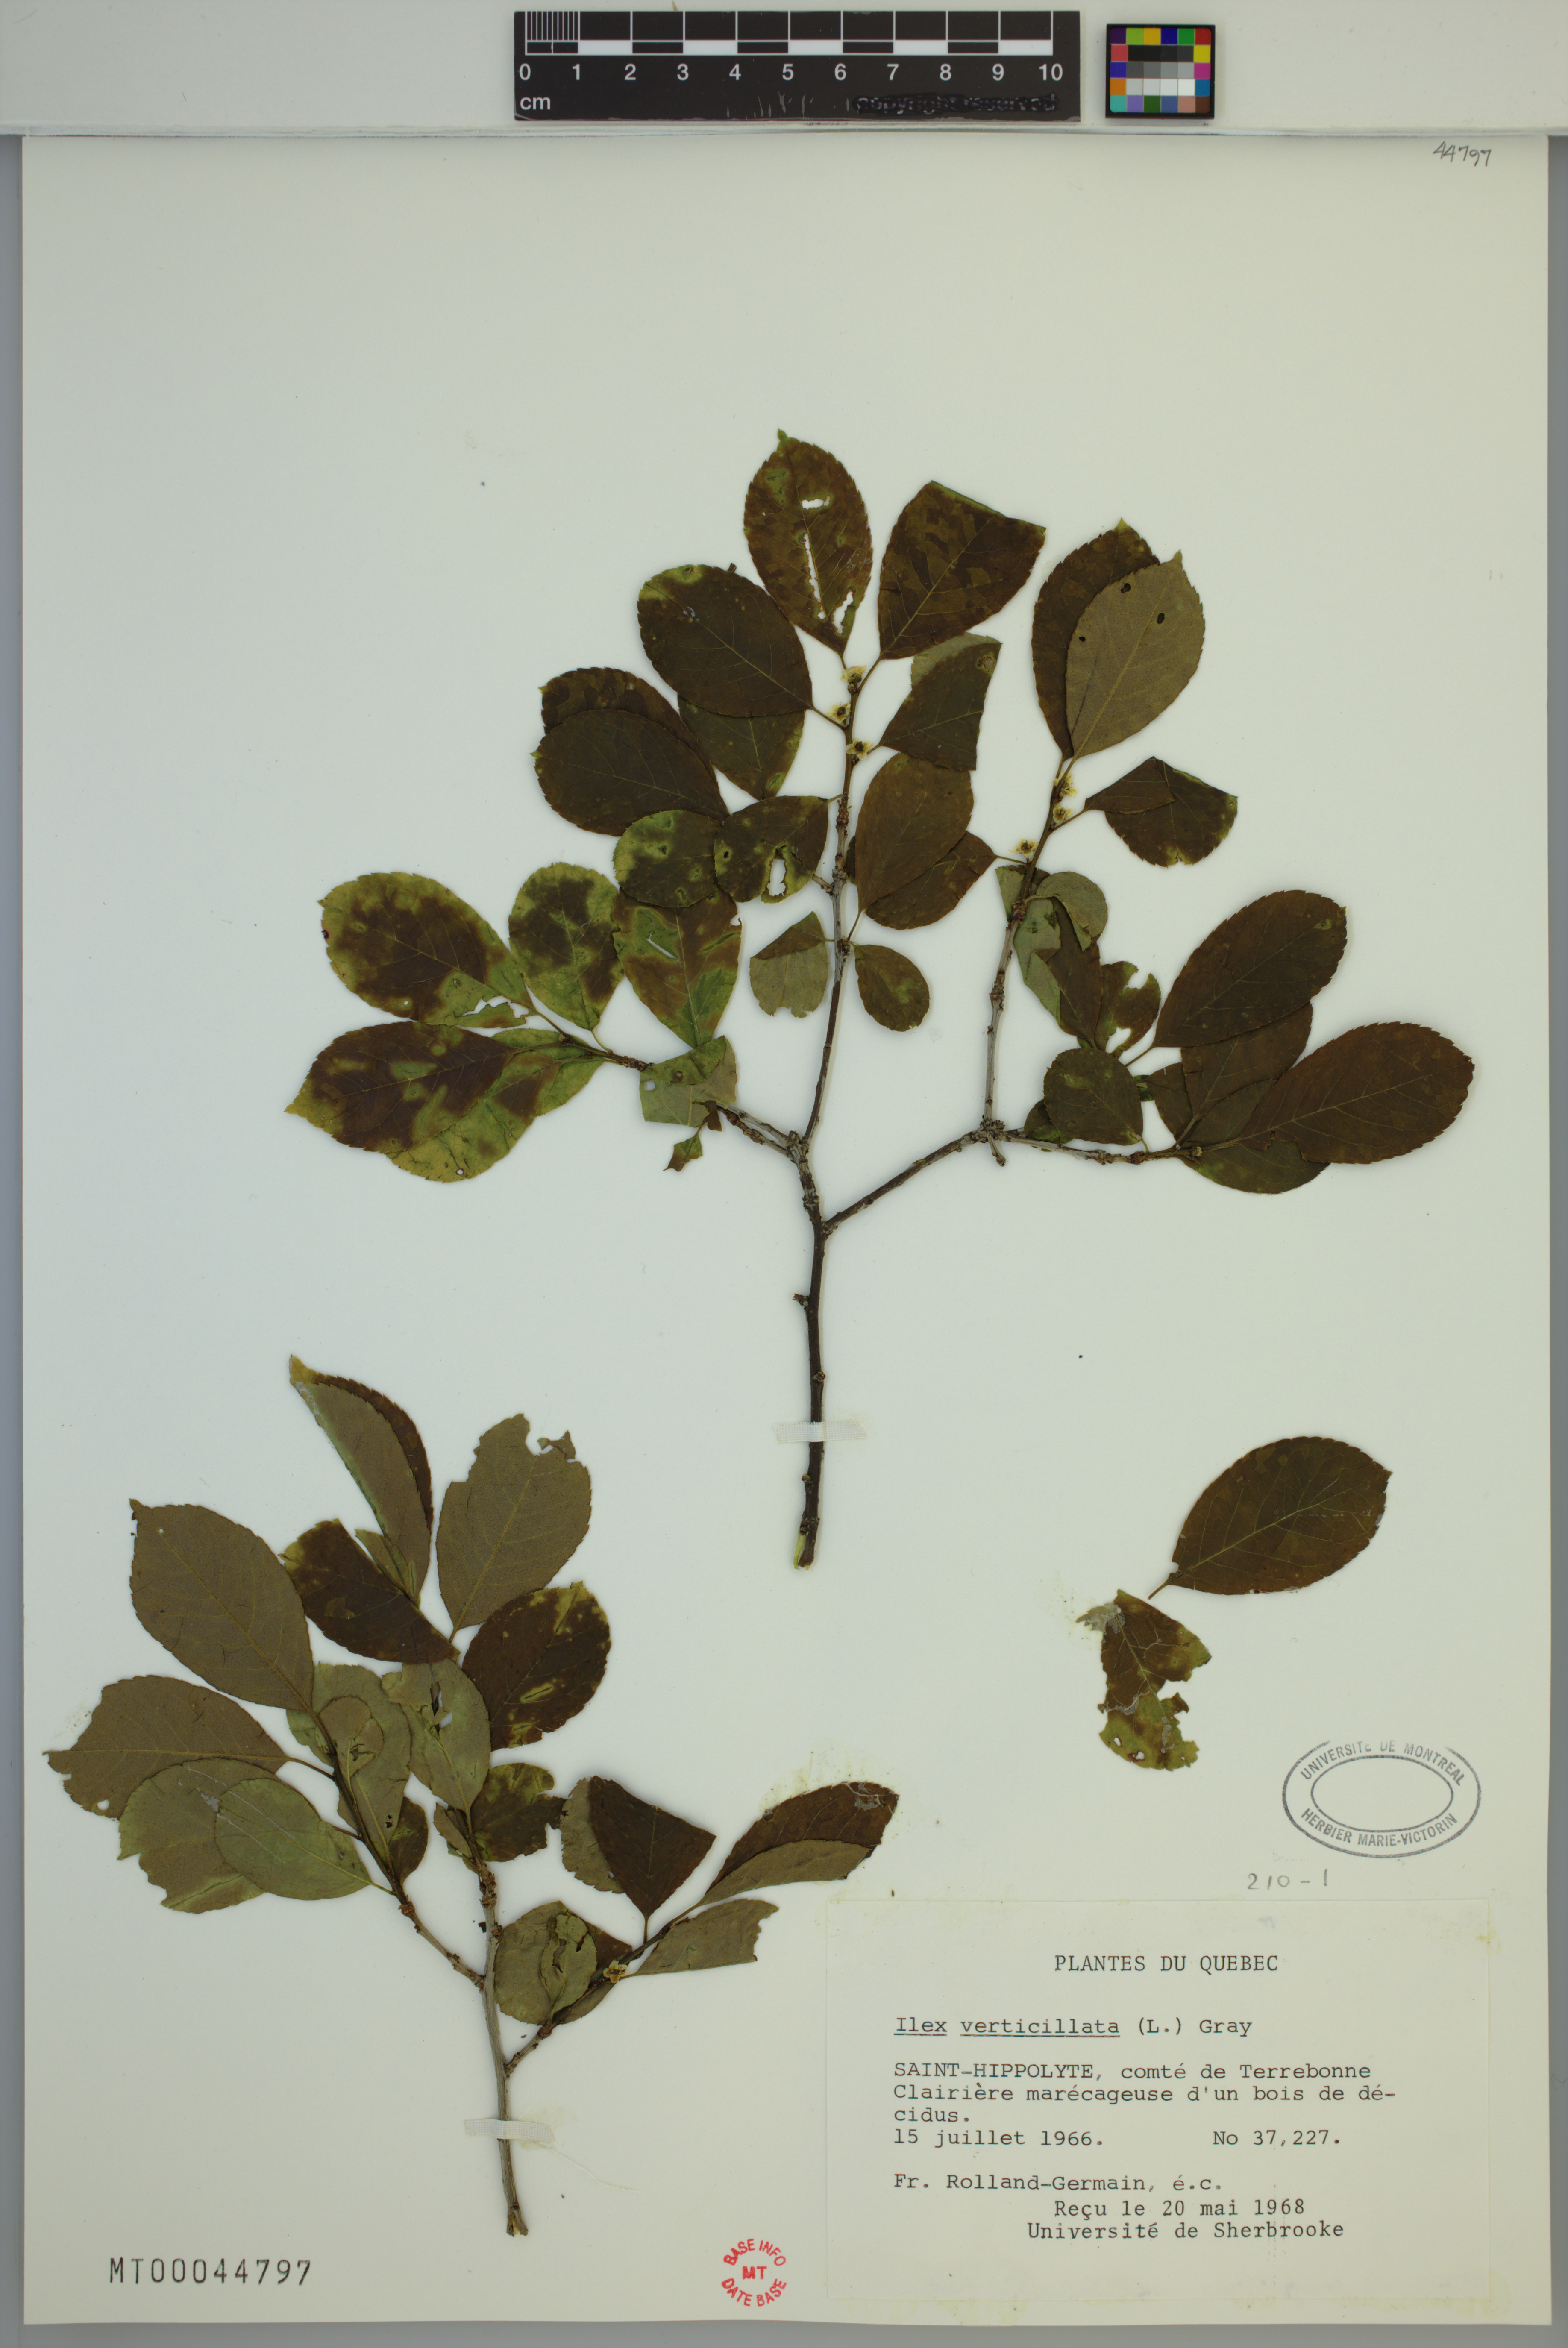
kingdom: Plantae
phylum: Tracheophyta
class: Magnoliopsida
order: Aquifoliales
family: Aquifoliaceae
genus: Ilex
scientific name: Ilex verticillata
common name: Virginia winterberry
